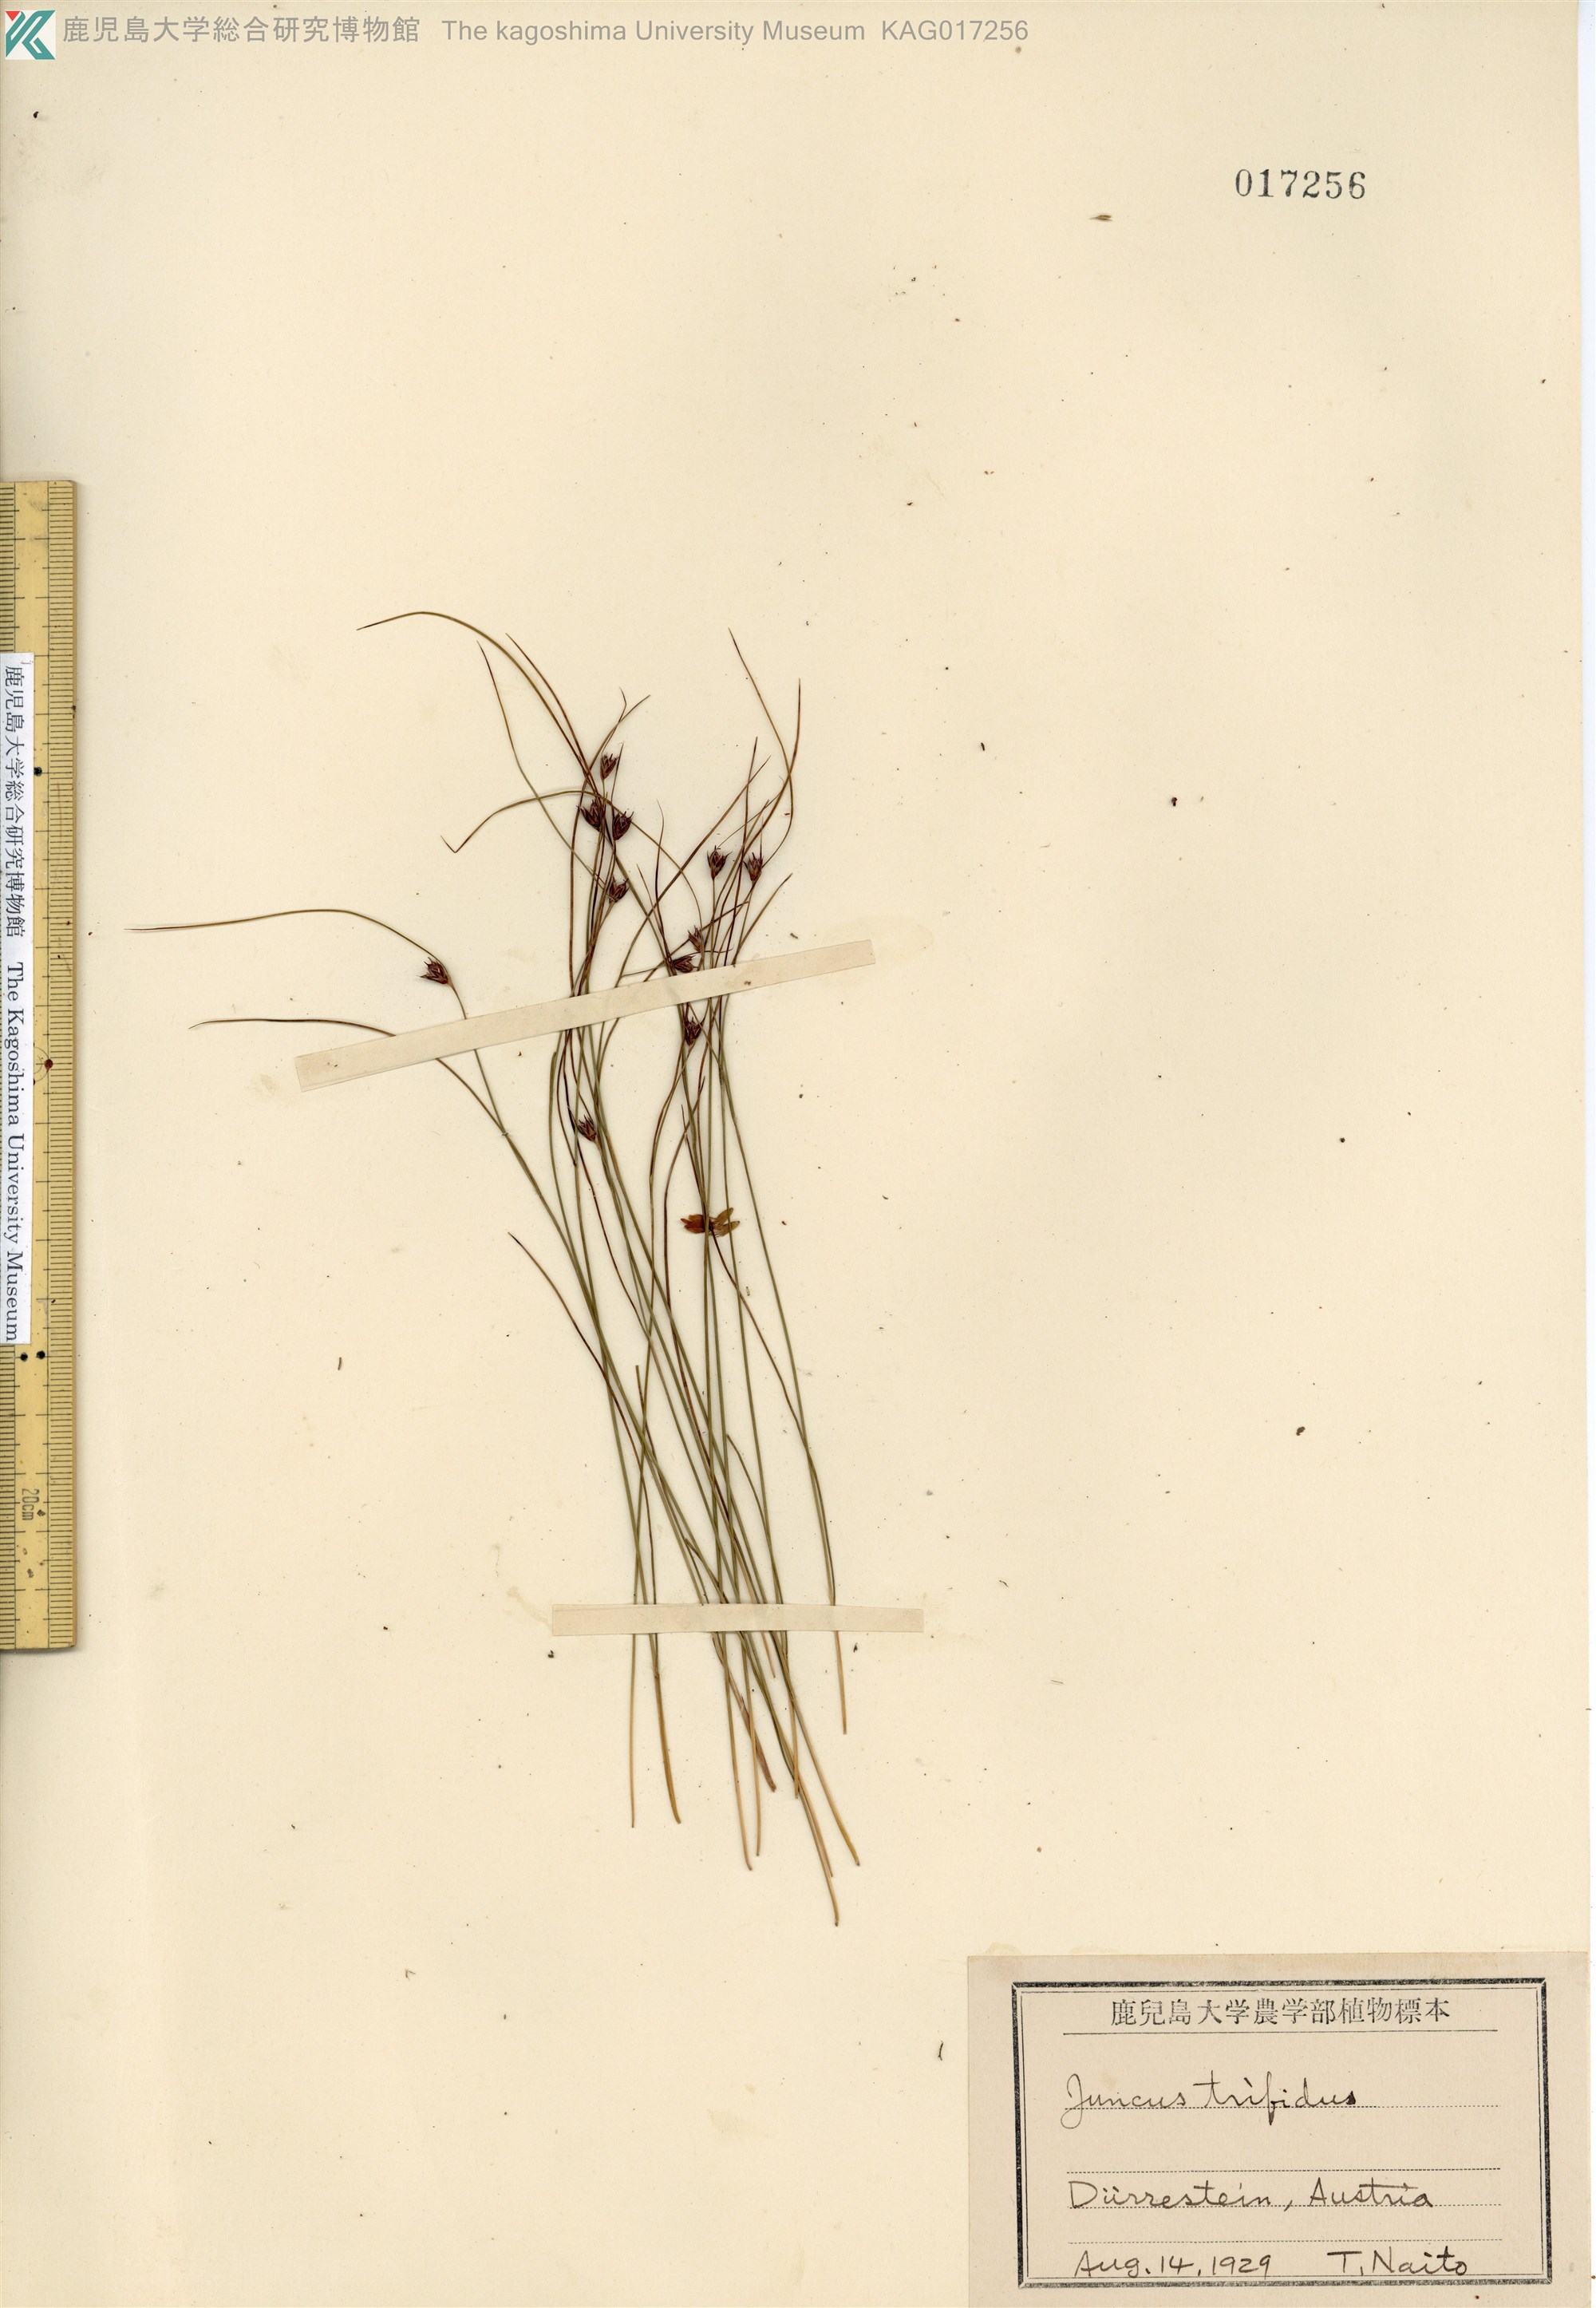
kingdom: Plantae
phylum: Tracheophyta
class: Liliopsida
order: Poales
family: Juncaceae
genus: Oreojuncus
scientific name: Oreojuncus trifidus
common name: Highland rush
